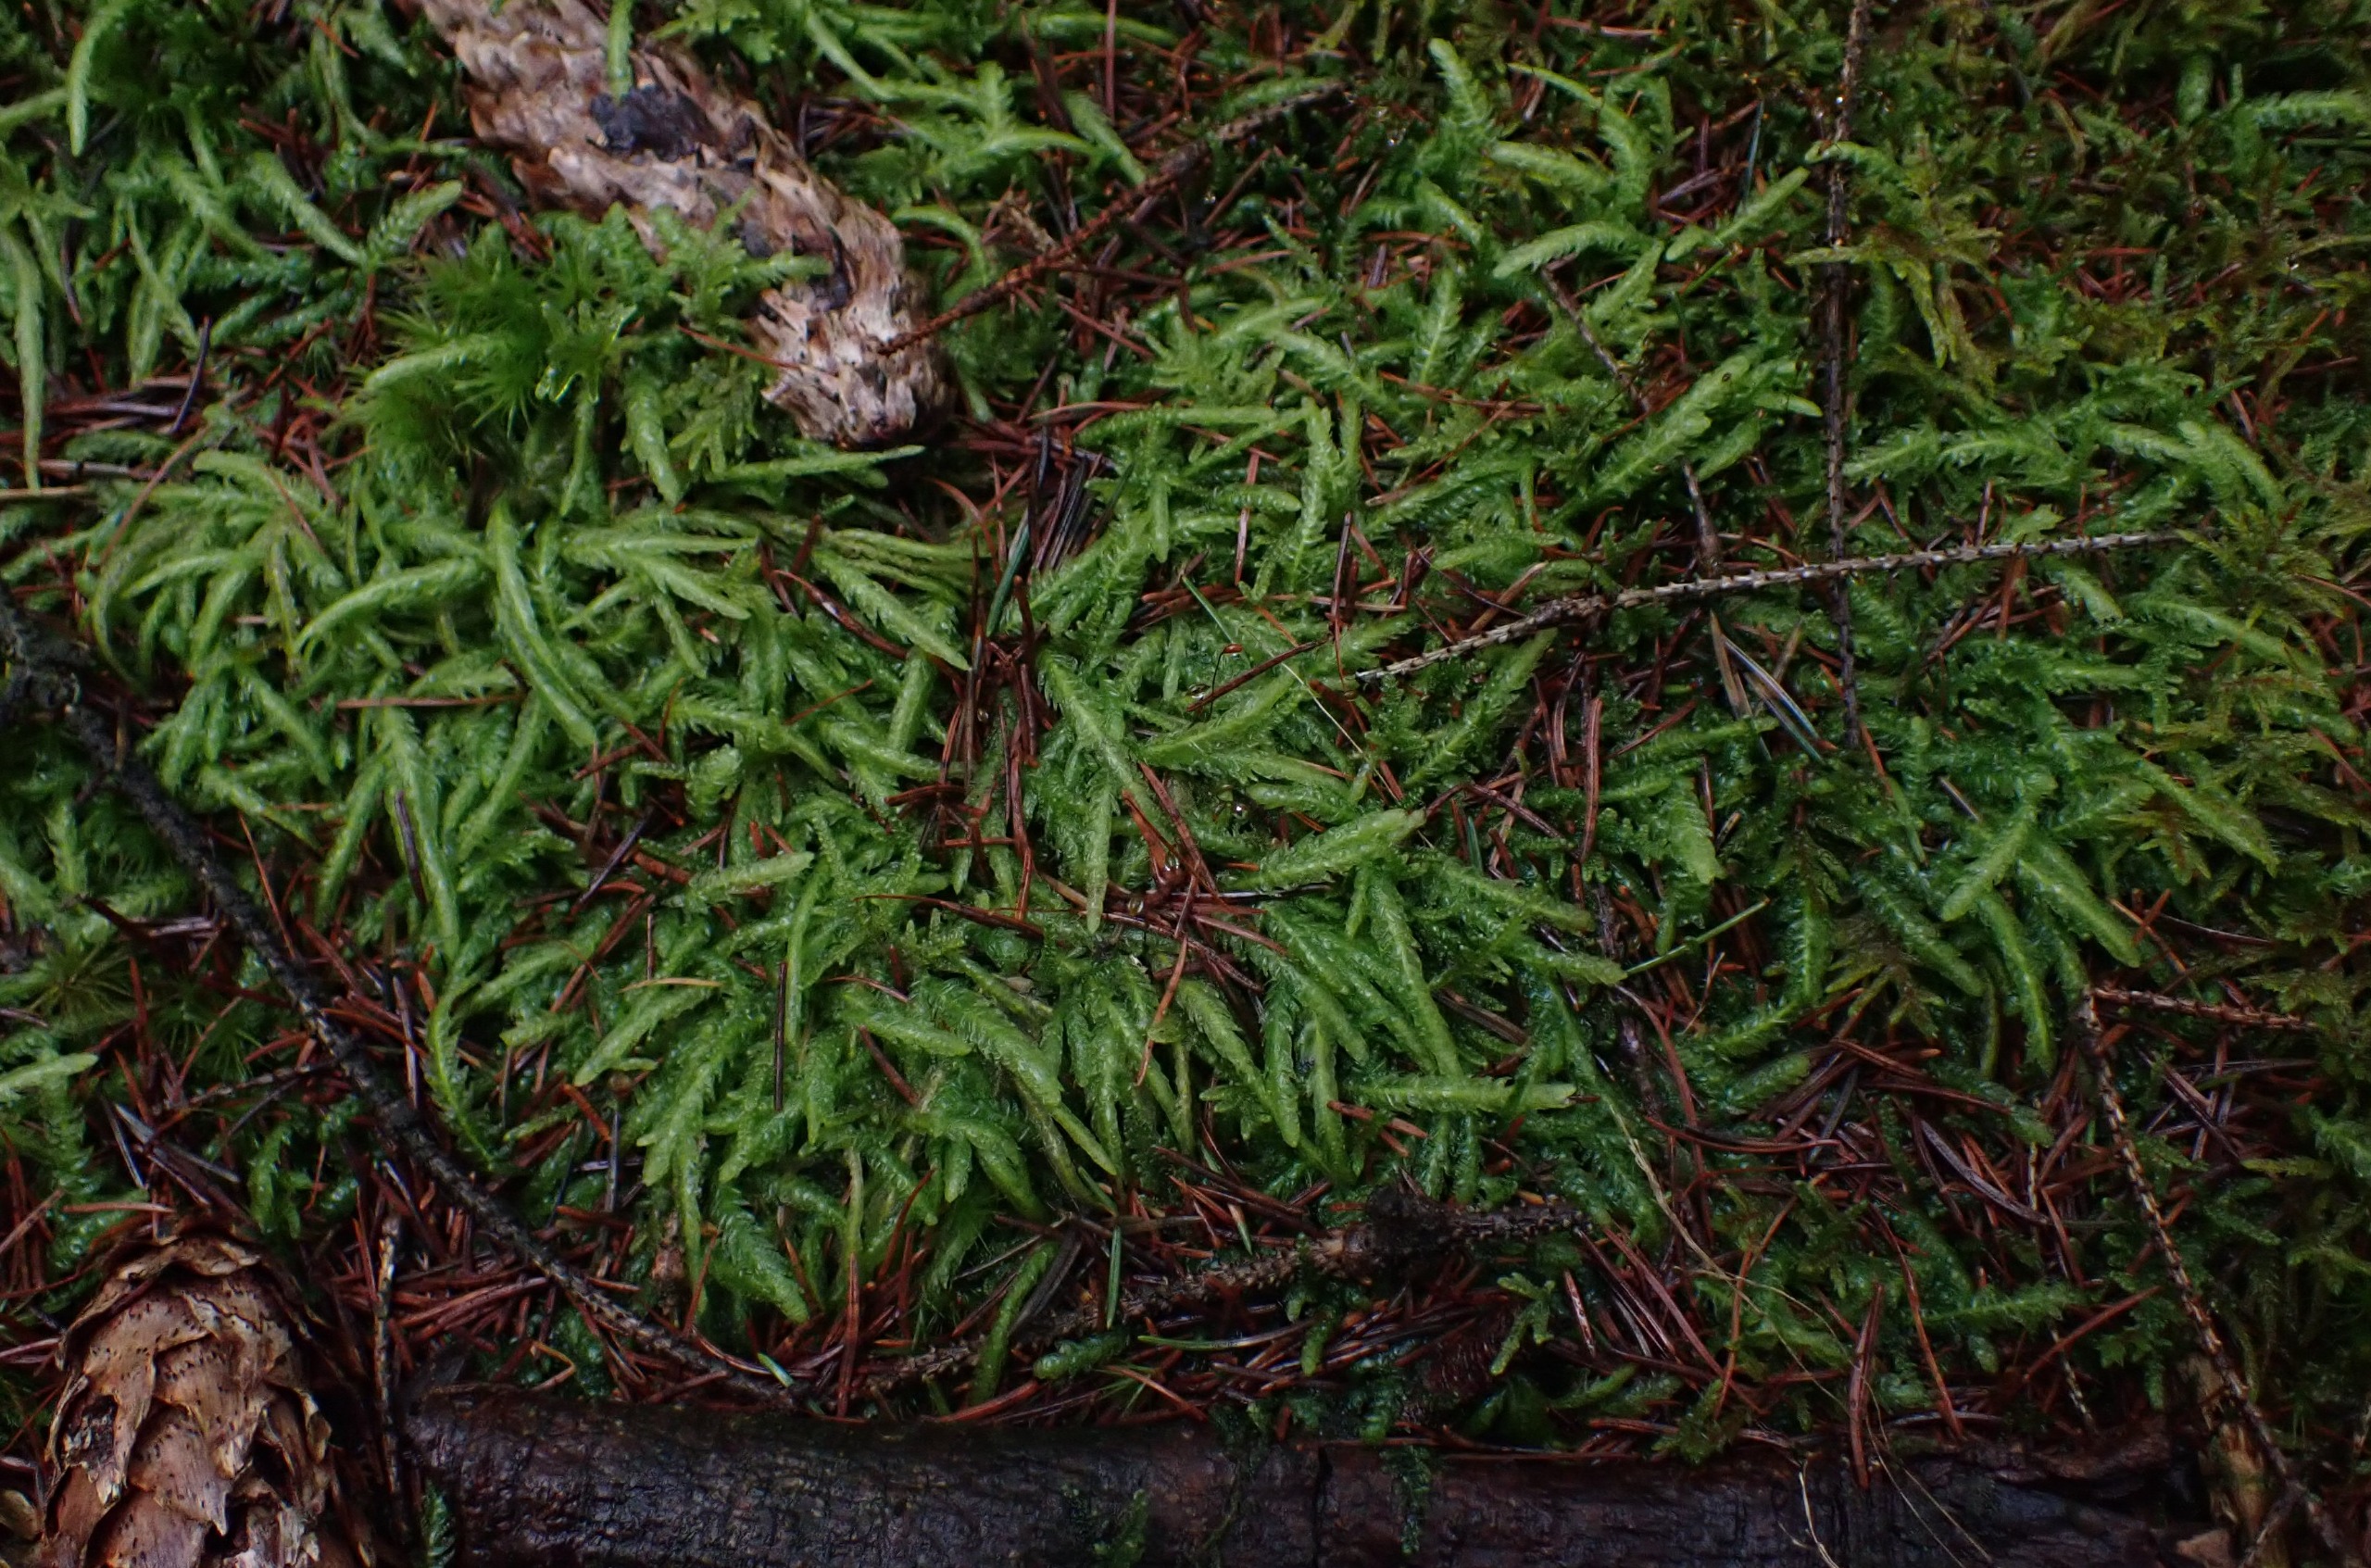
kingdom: Plantae
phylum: Bryophyta
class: Bryopsida
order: Hypnales
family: Plagiotheciaceae
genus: Plagiothecium
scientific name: Plagiothecium undulatum
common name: Bølget tæppemos
